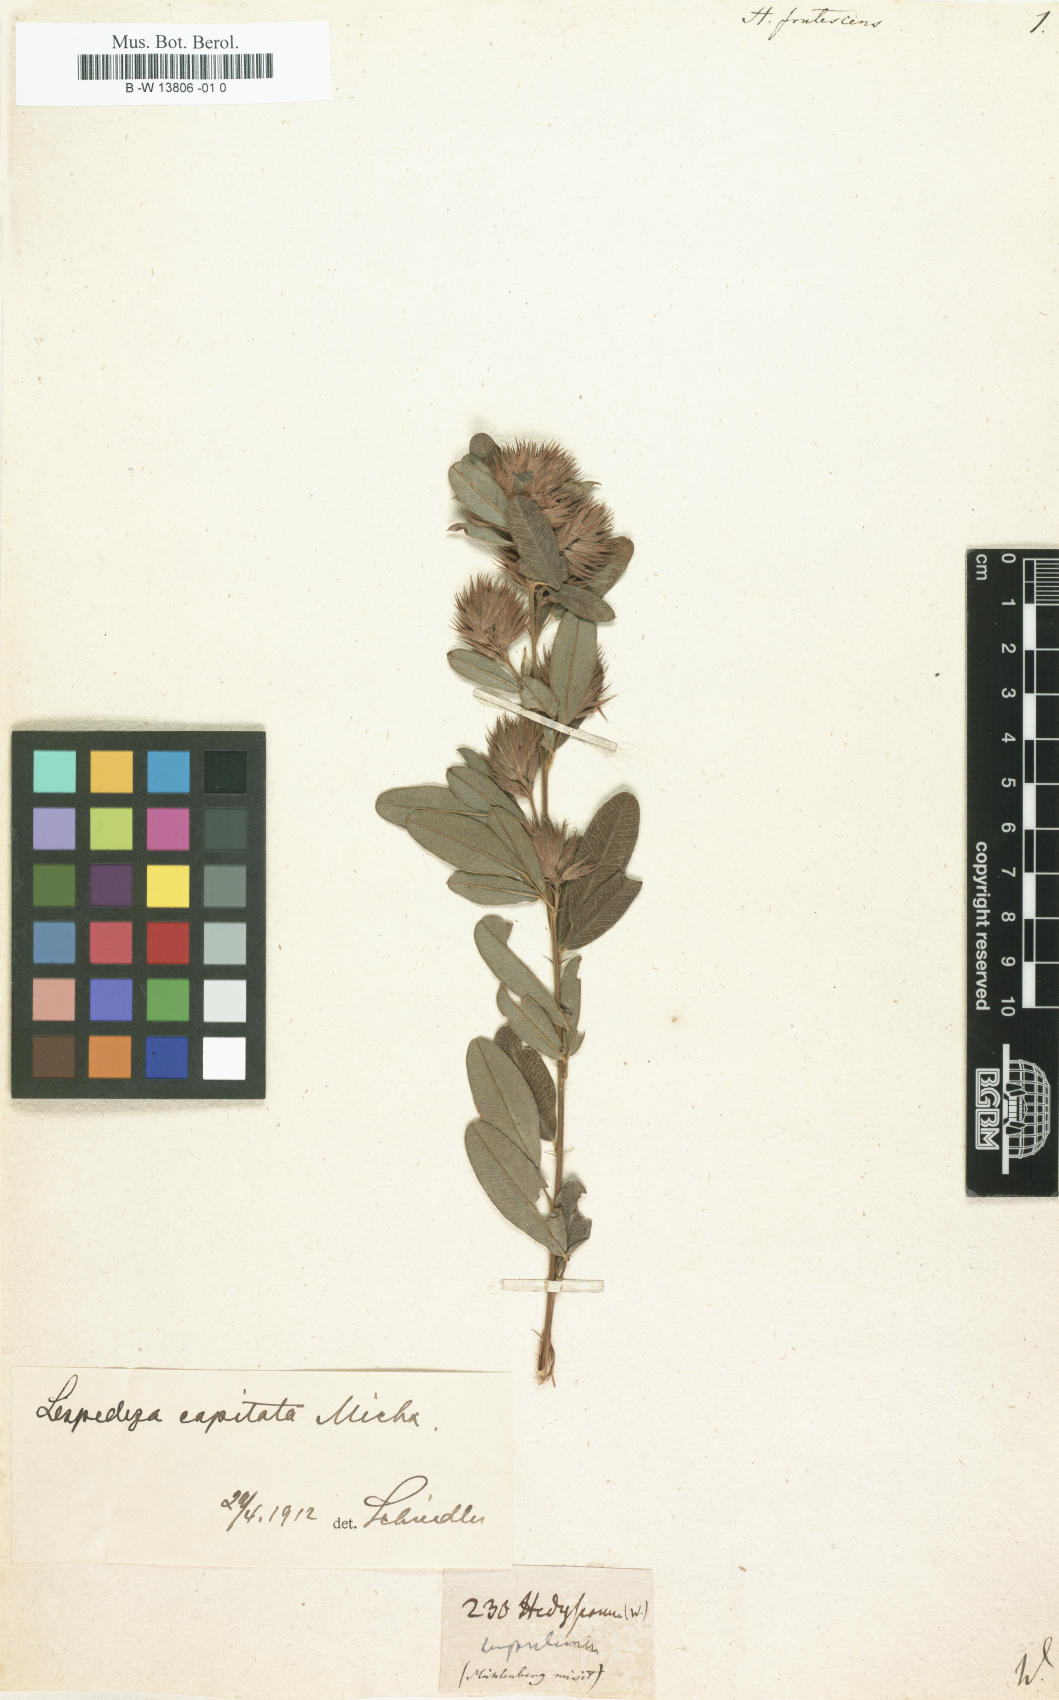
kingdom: Plantae
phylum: Tracheophyta
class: Magnoliopsida
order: Fabales
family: Fabaceae
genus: Lespedeza
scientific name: Lespedeza violacea
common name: Wand bush-clover
